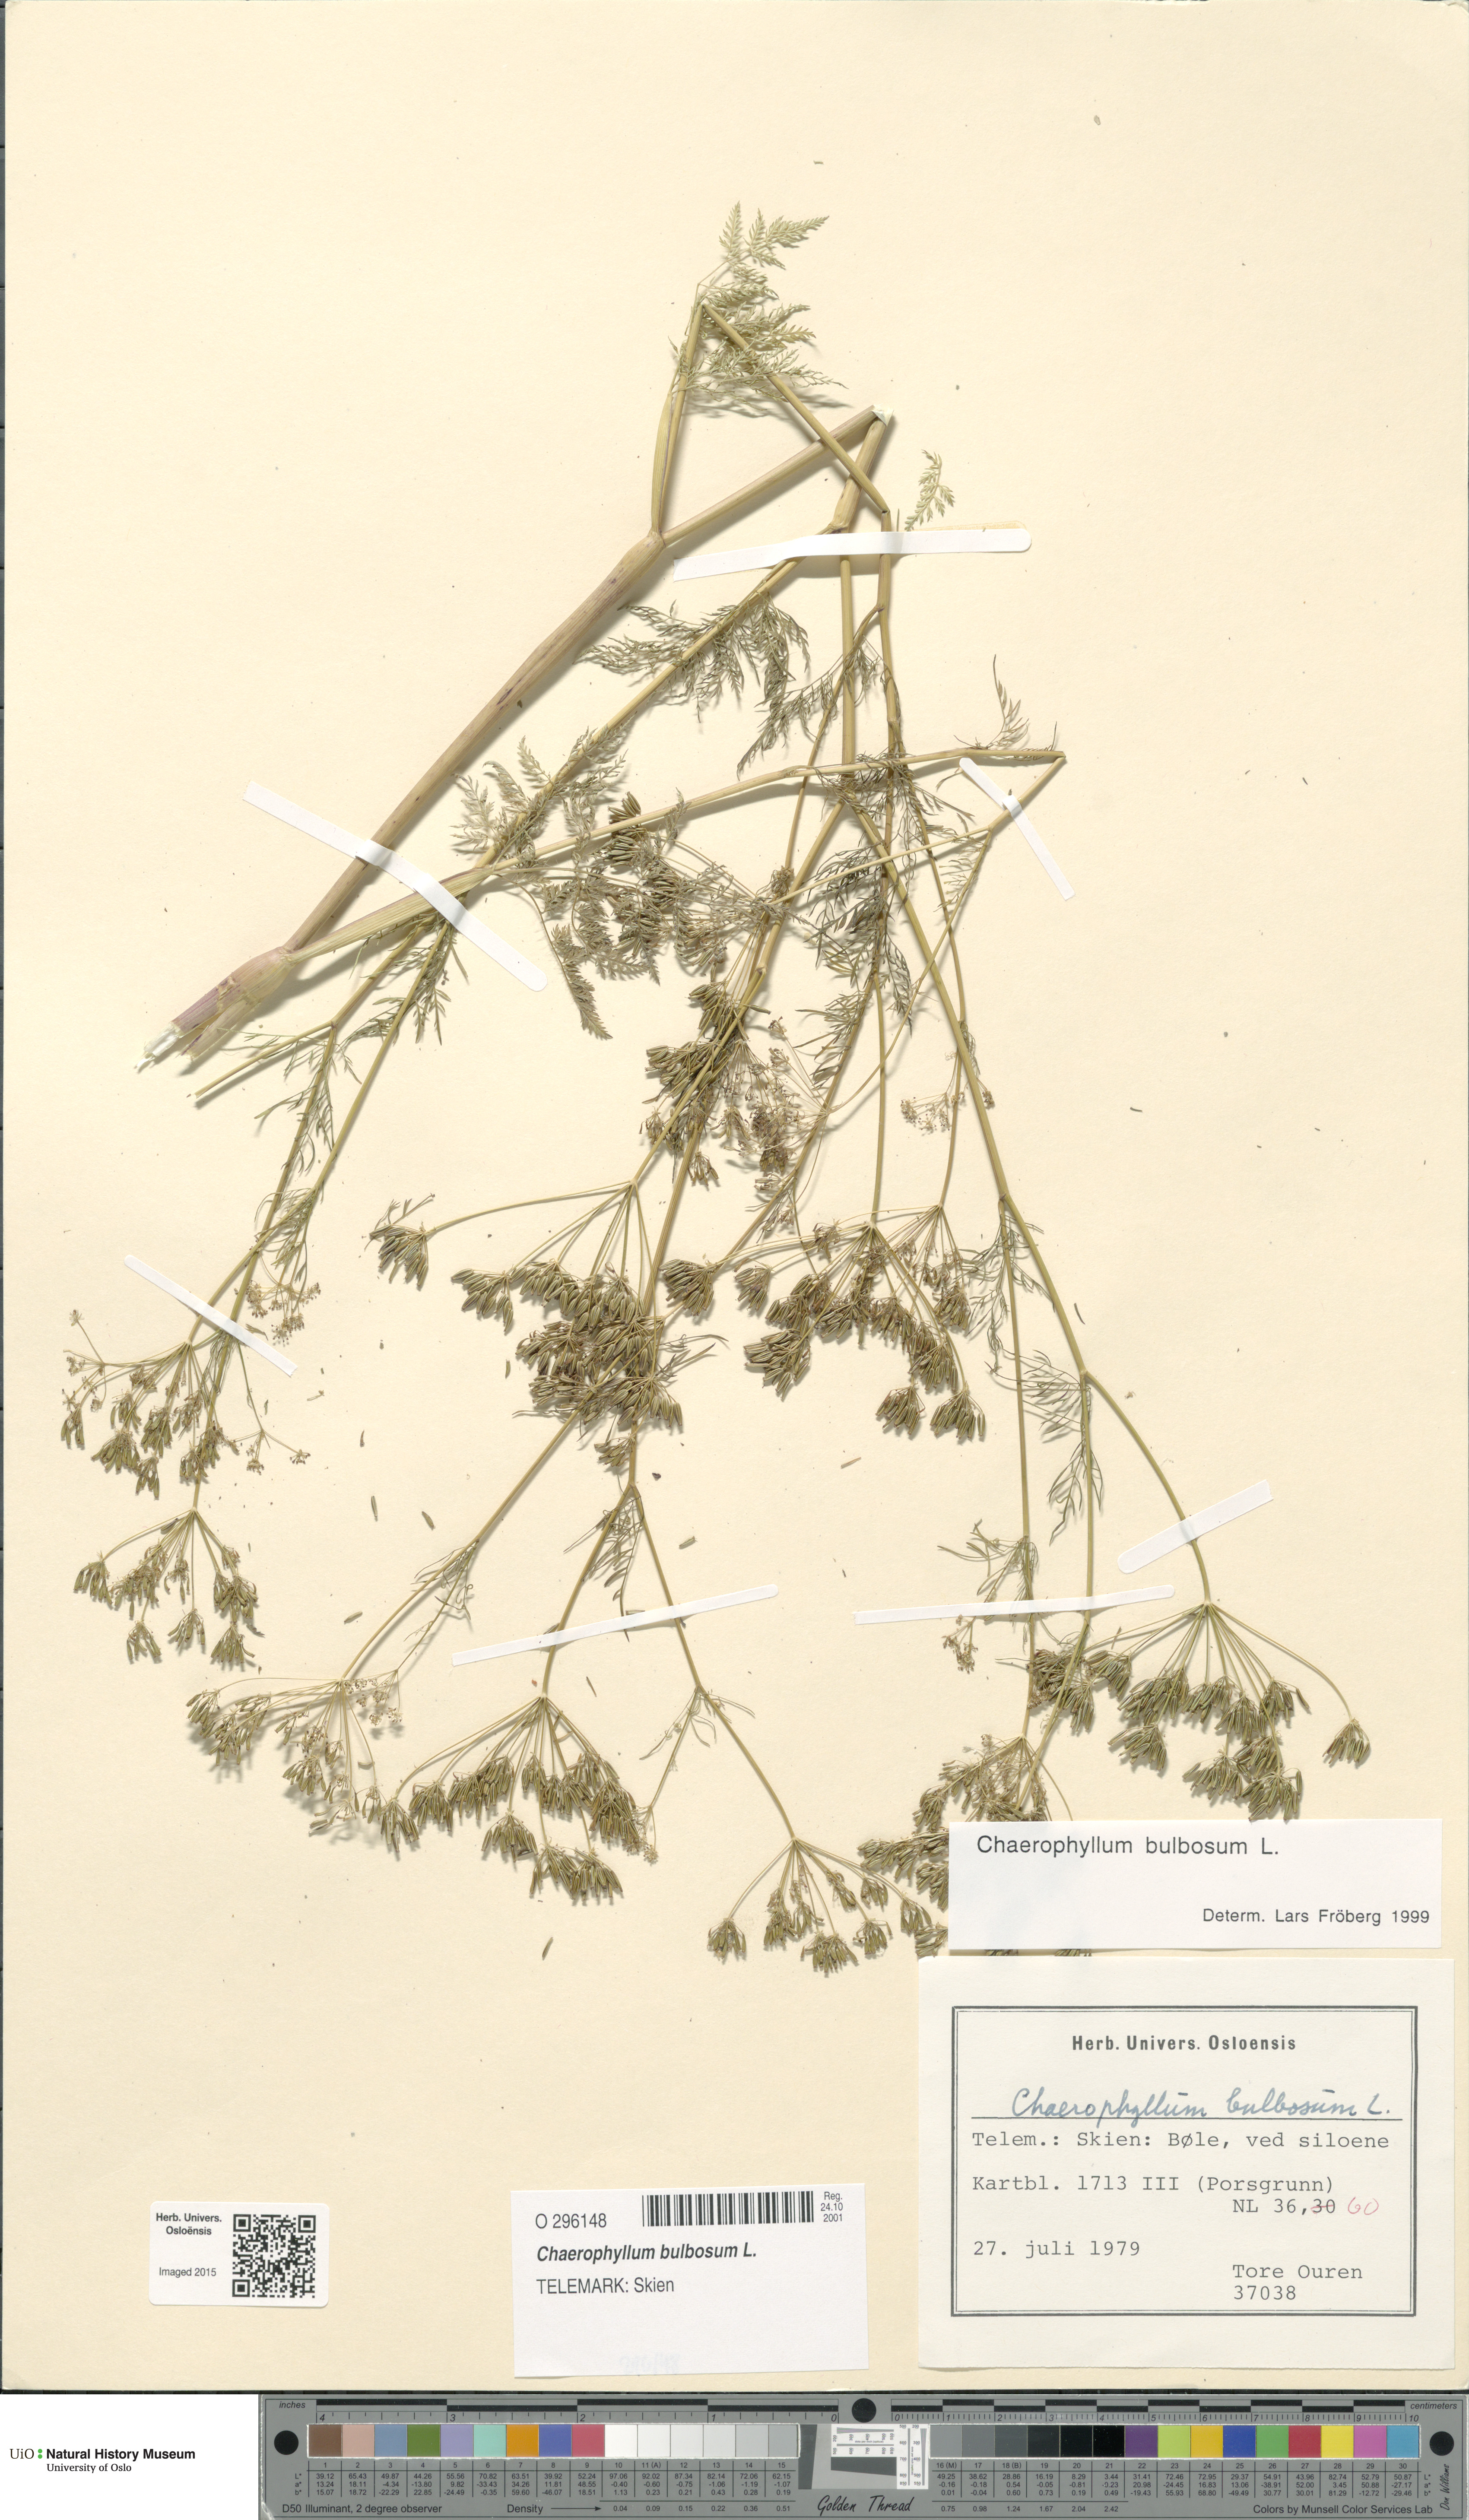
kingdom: Plantae
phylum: Tracheophyta
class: Magnoliopsida
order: Apiales
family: Apiaceae
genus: Chaerophyllum
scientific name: Chaerophyllum bulbosum
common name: Bulbous chervil
